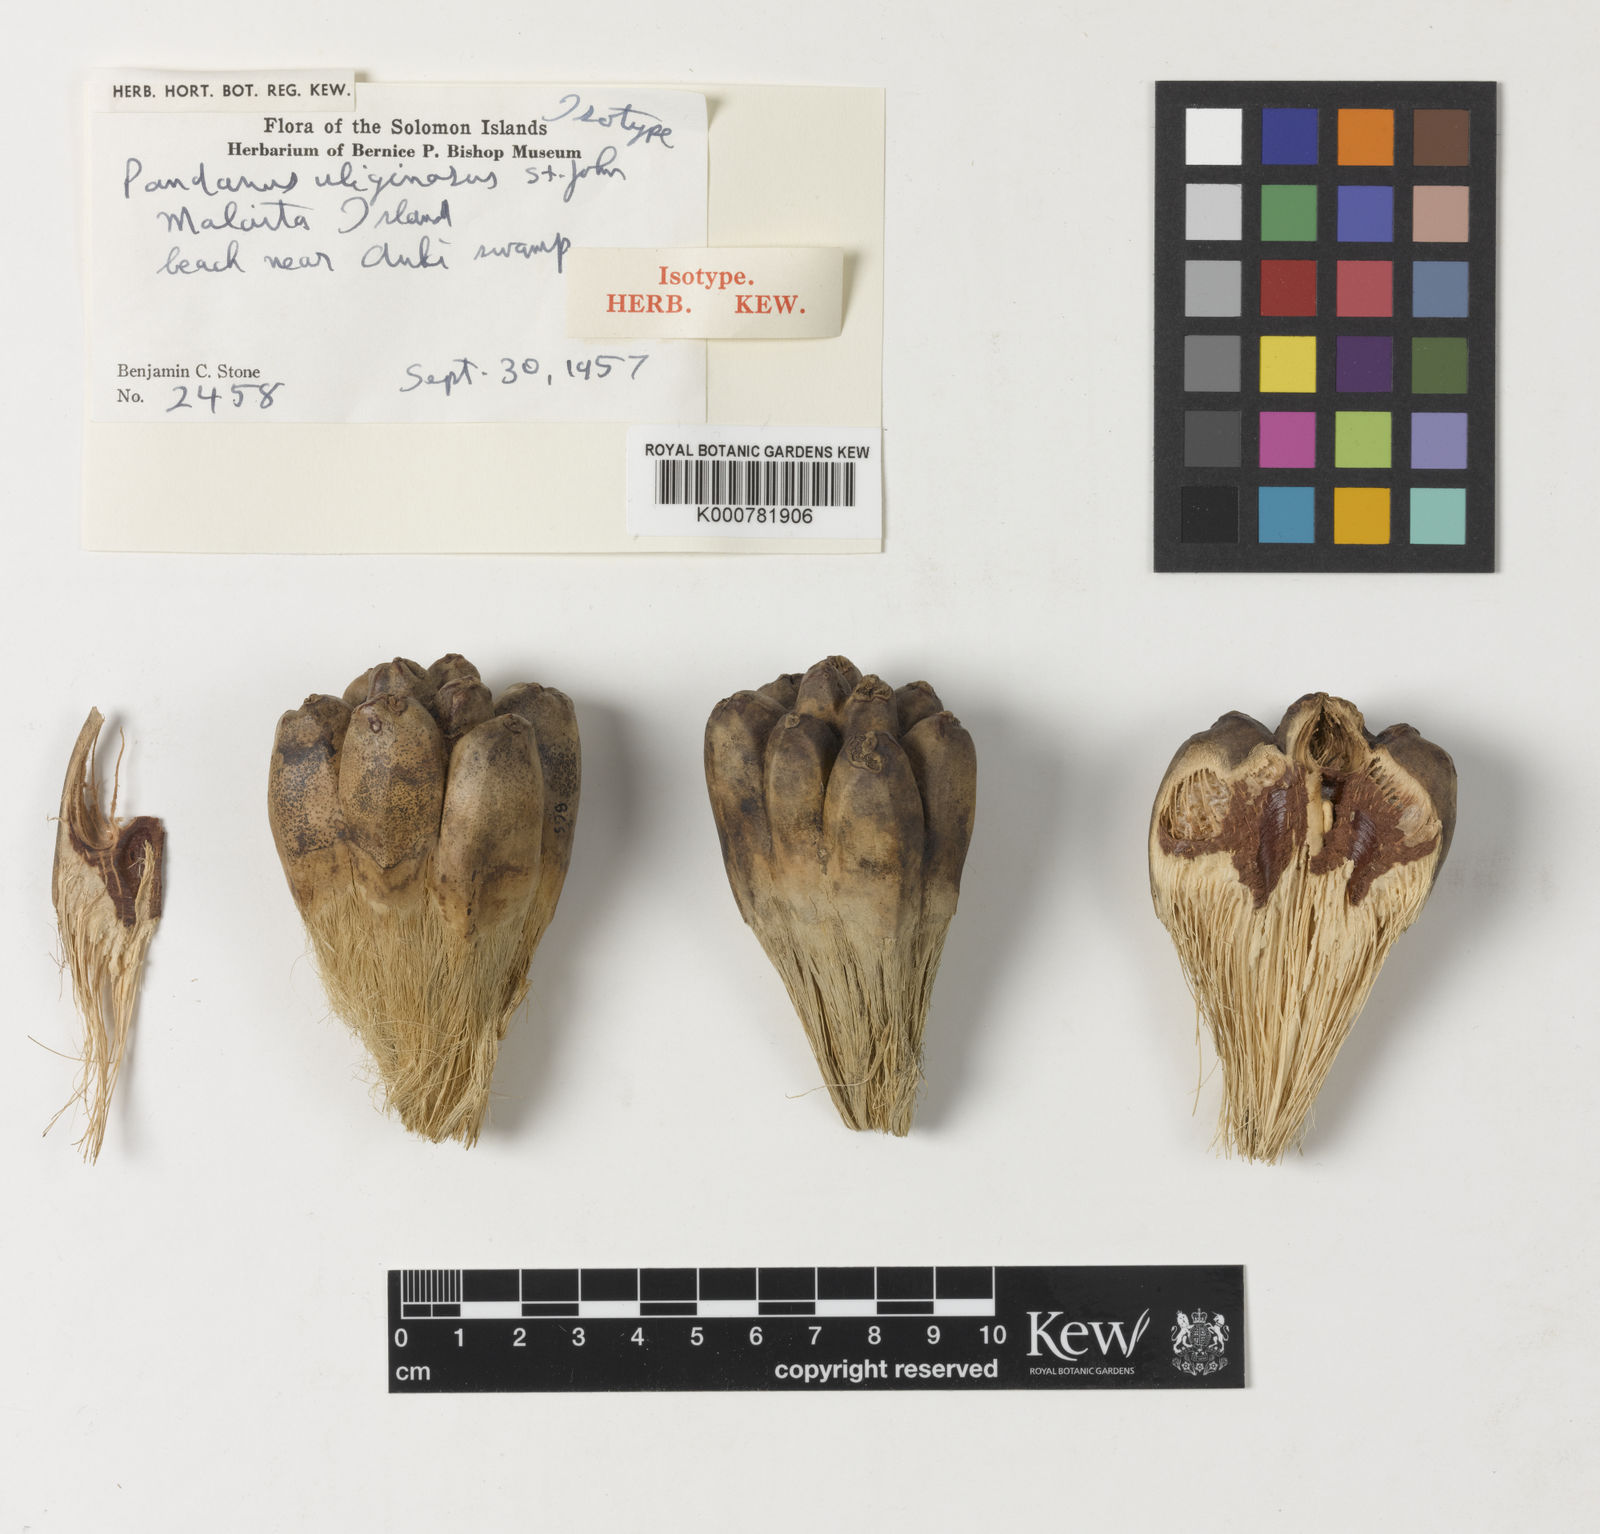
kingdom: Plantae
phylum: Tracheophyta
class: Liliopsida
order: Pandanales
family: Pandanaceae
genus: Pandanus
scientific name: Pandanus
